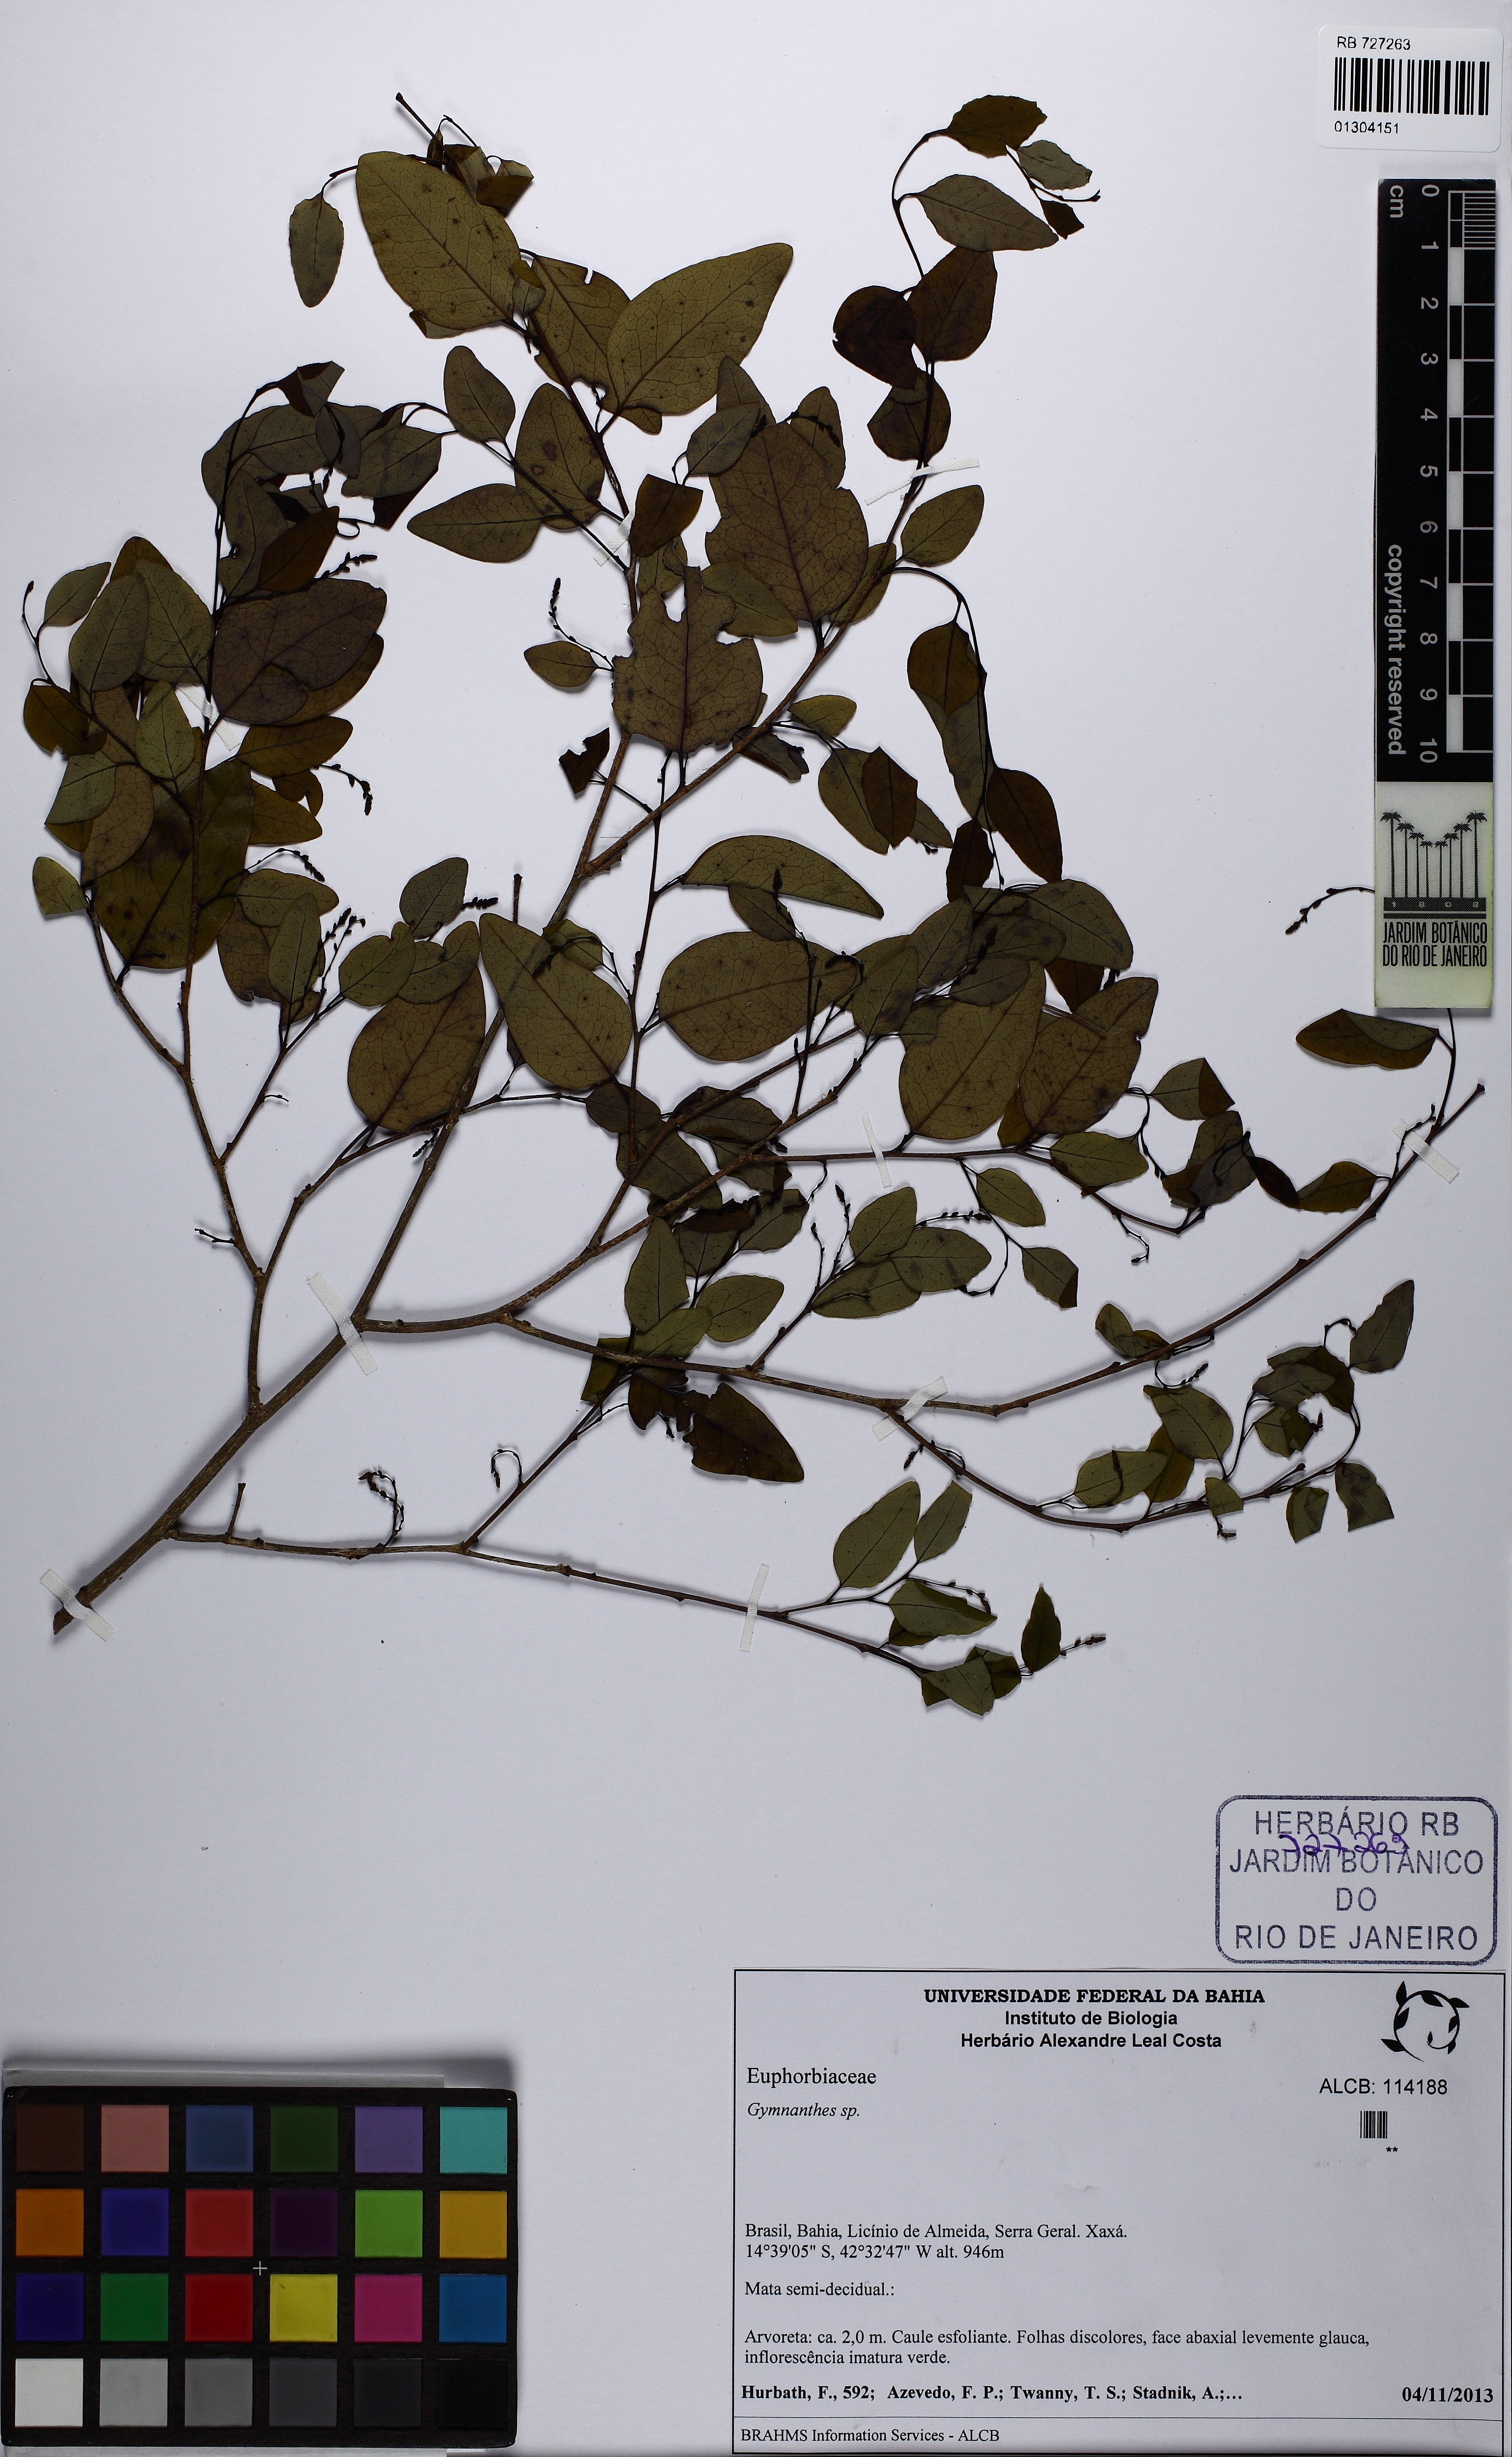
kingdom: Plantae
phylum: Tracheophyta
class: Magnoliopsida
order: Malpighiales
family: Euphorbiaceae
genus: Gymnanthes
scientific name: Gymnanthes
